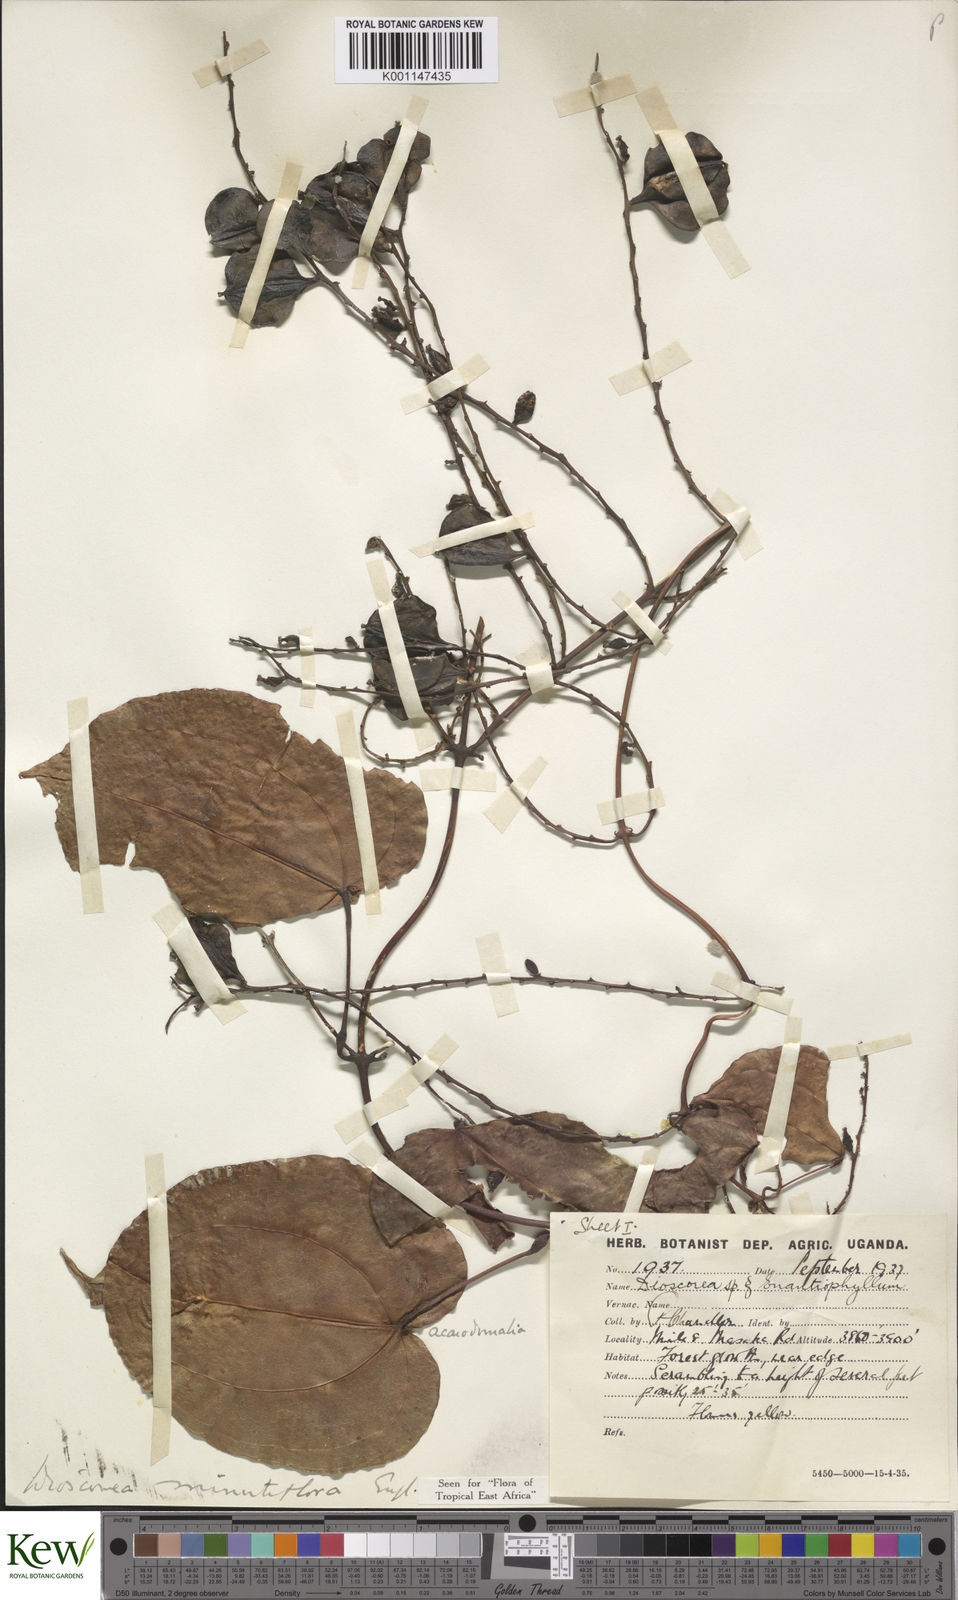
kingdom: Plantae
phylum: Tracheophyta
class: Liliopsida
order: Dioscoreales
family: Dioscoreaceae
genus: Dioscorea
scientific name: Dioscorea minutiflora
